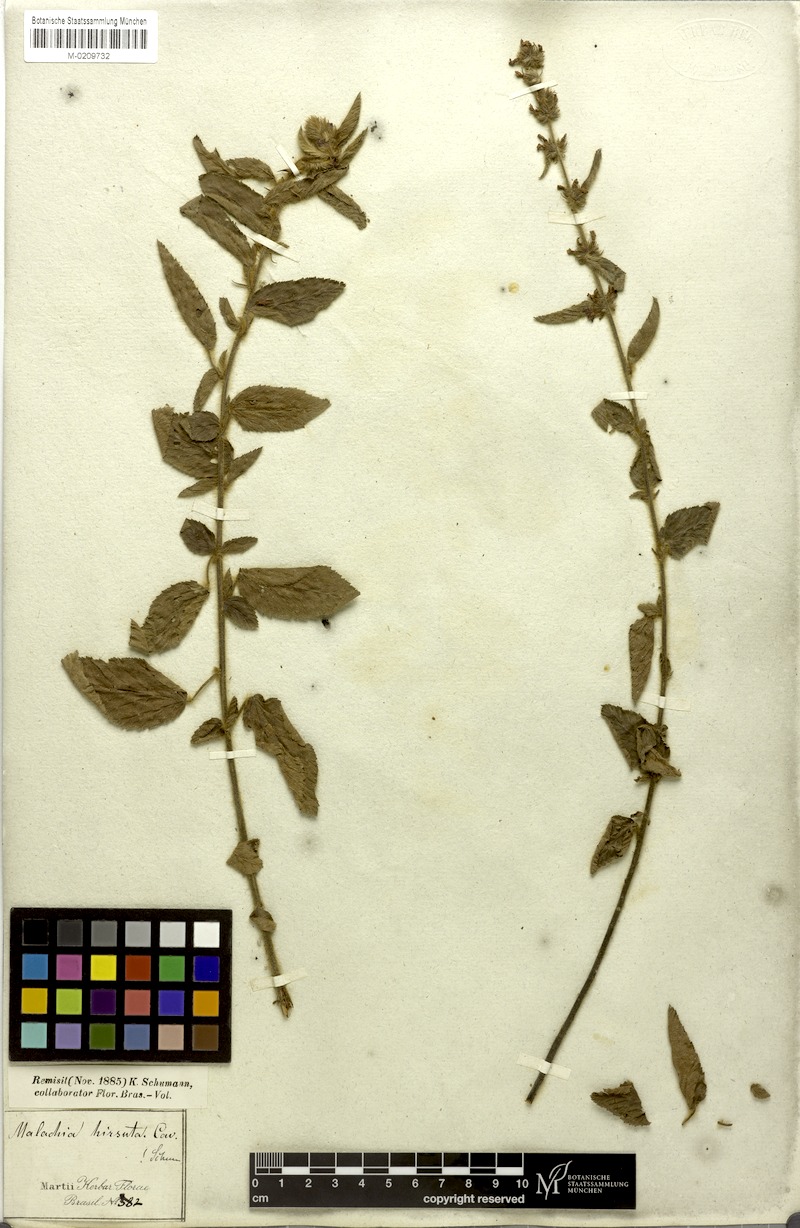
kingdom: Plantae
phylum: Tracheophyta
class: Magnoliopsida
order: Malvales
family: Malvaceae
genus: Melochia
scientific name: Melochia spicata
